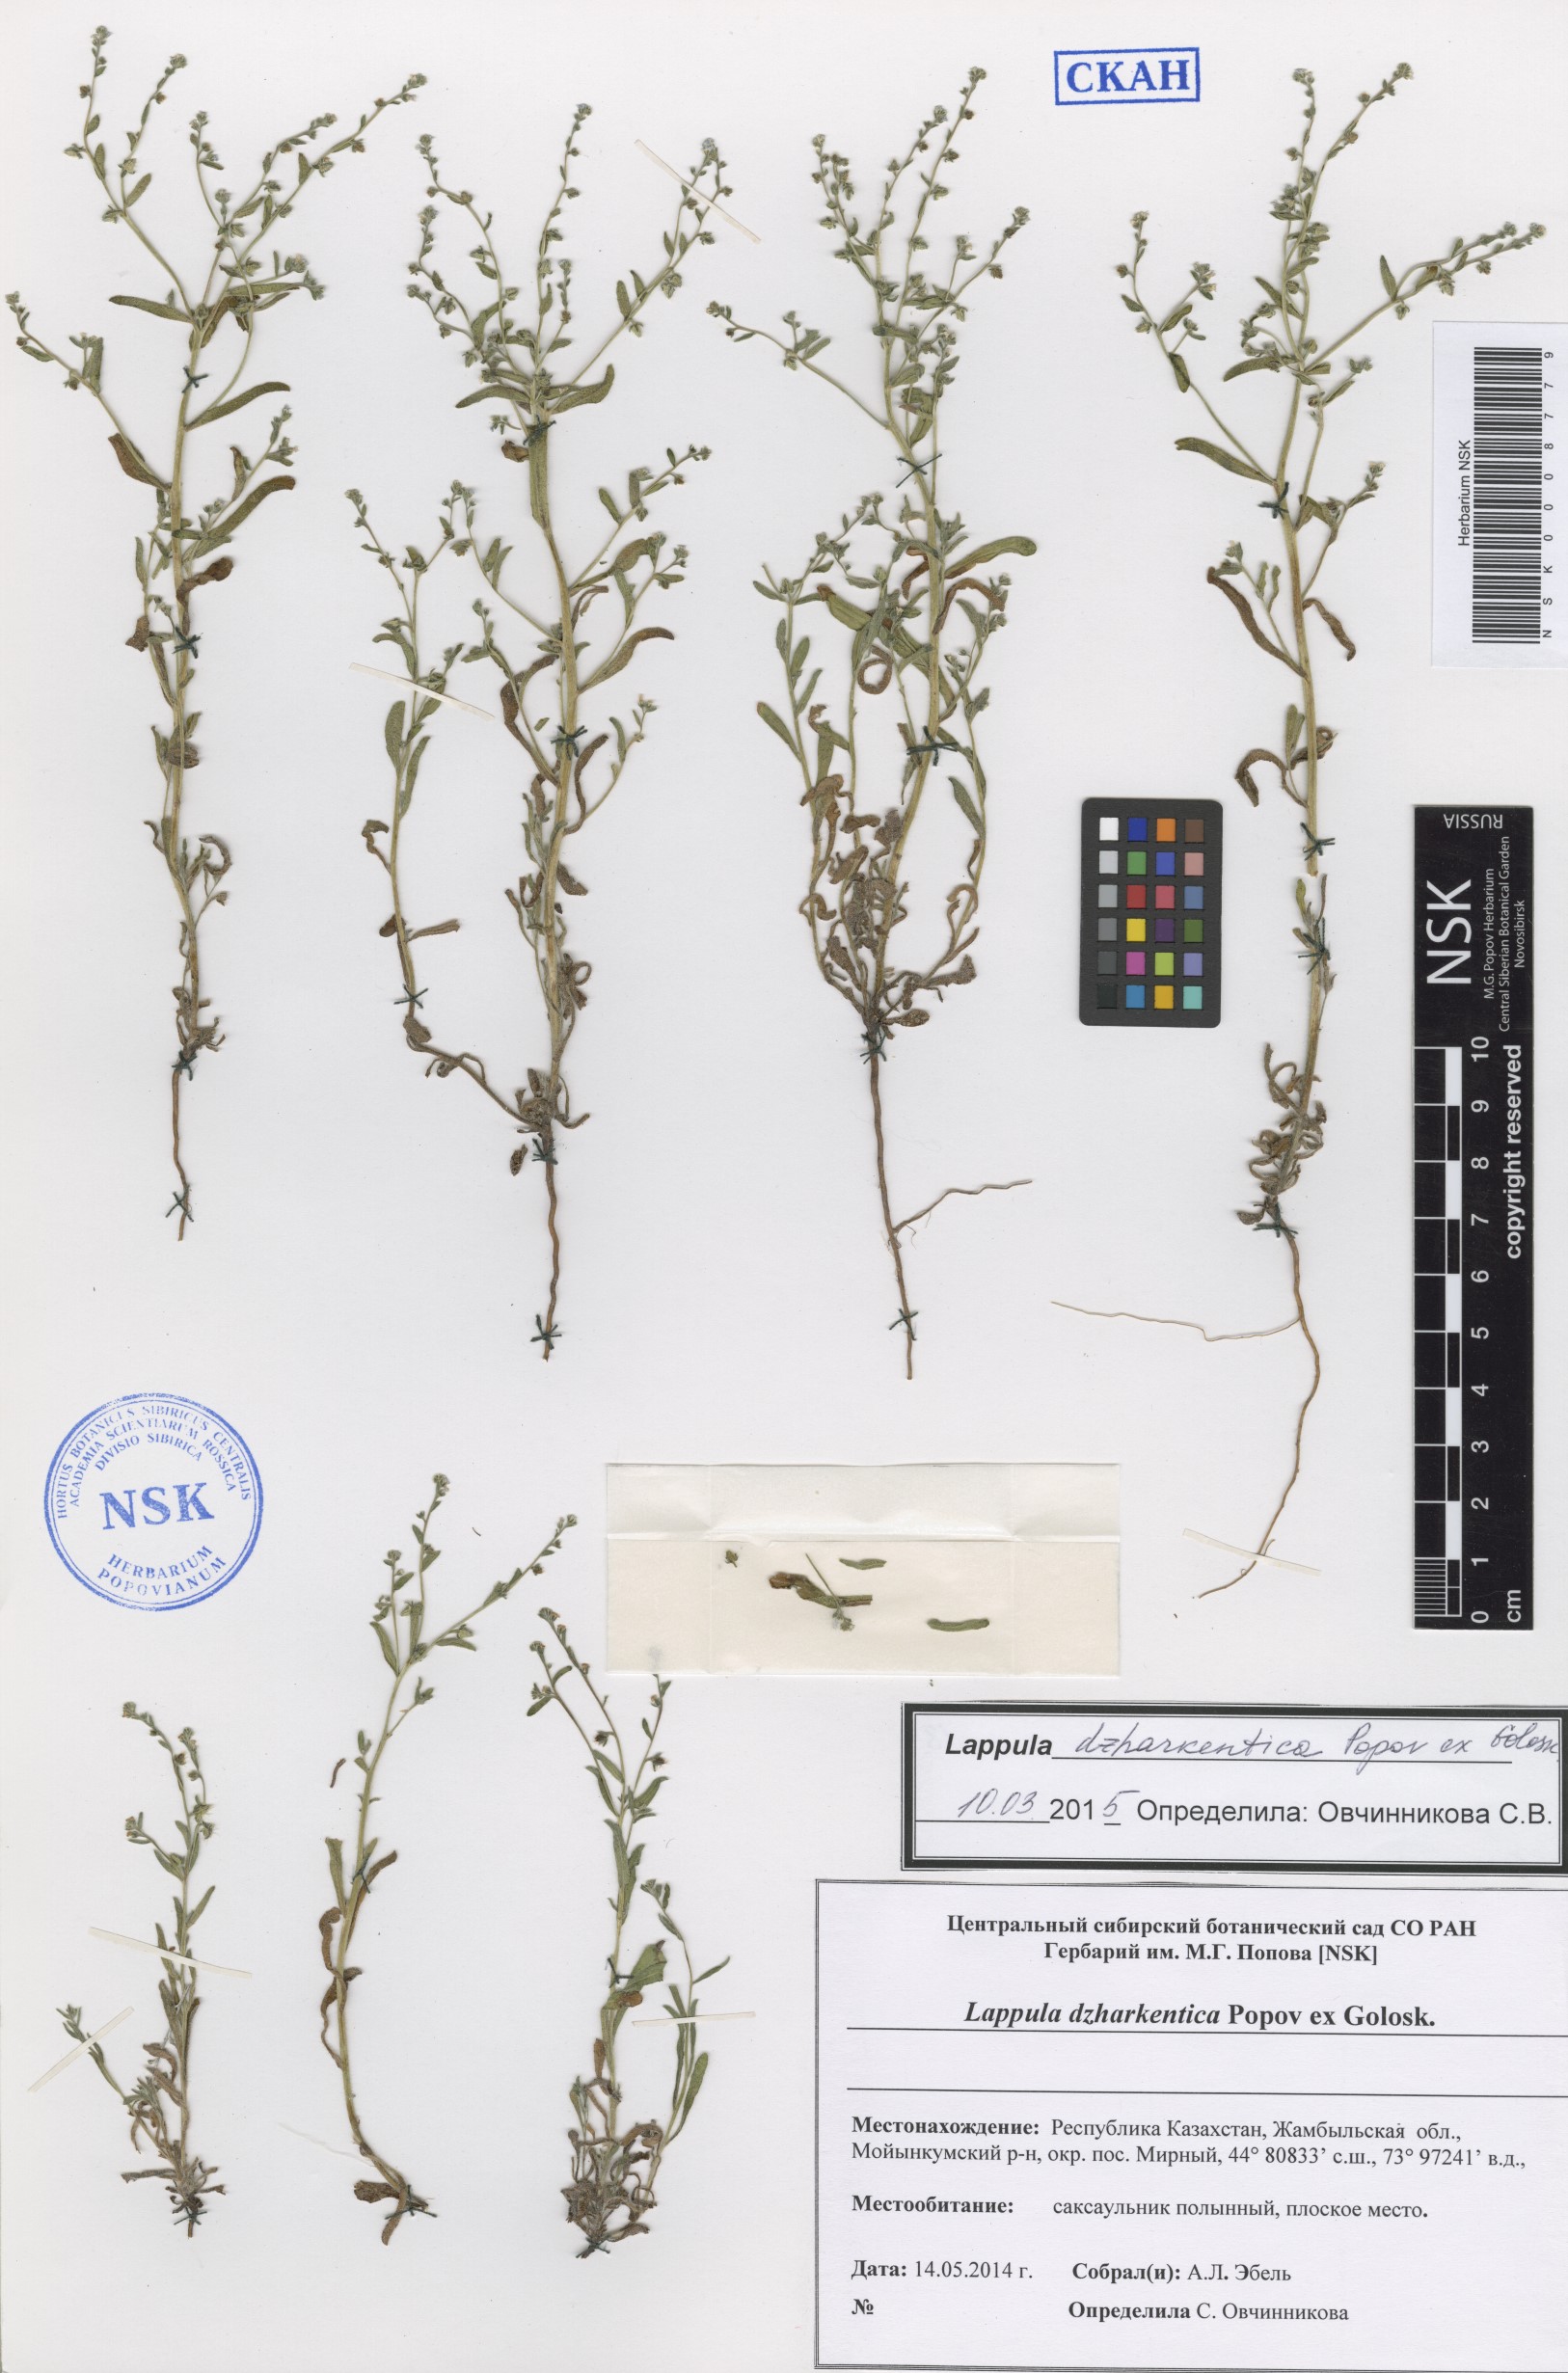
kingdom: Plantae
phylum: Tracheophyta
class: Magnoliopsida
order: Boraginales
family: Boraginaceae
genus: Lappula
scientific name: Lappula dzharkentica
